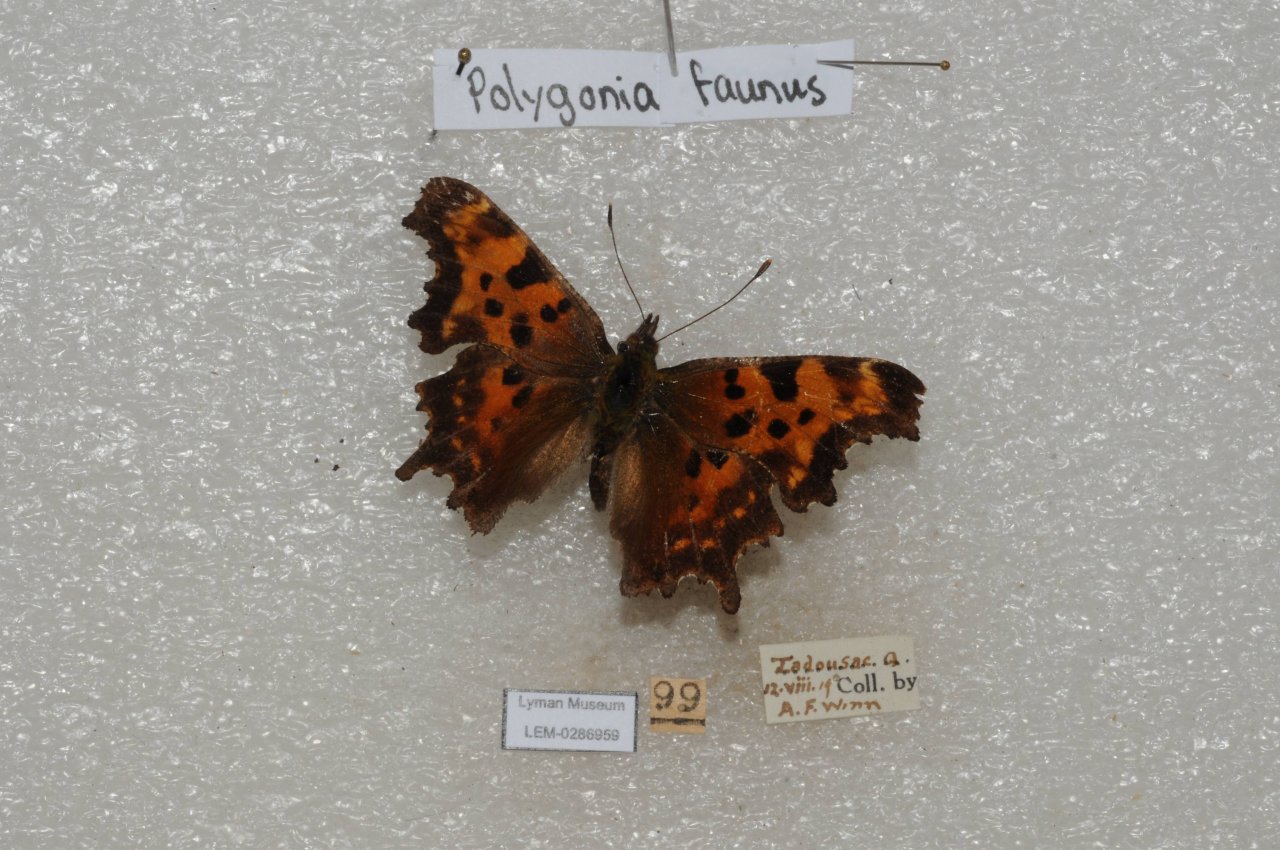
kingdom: Animalia
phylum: Arthropoda
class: Insecta
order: Lepidoptera
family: Nymphalidae
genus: Polygonia
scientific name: Polygonia faunus
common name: Green Comma
